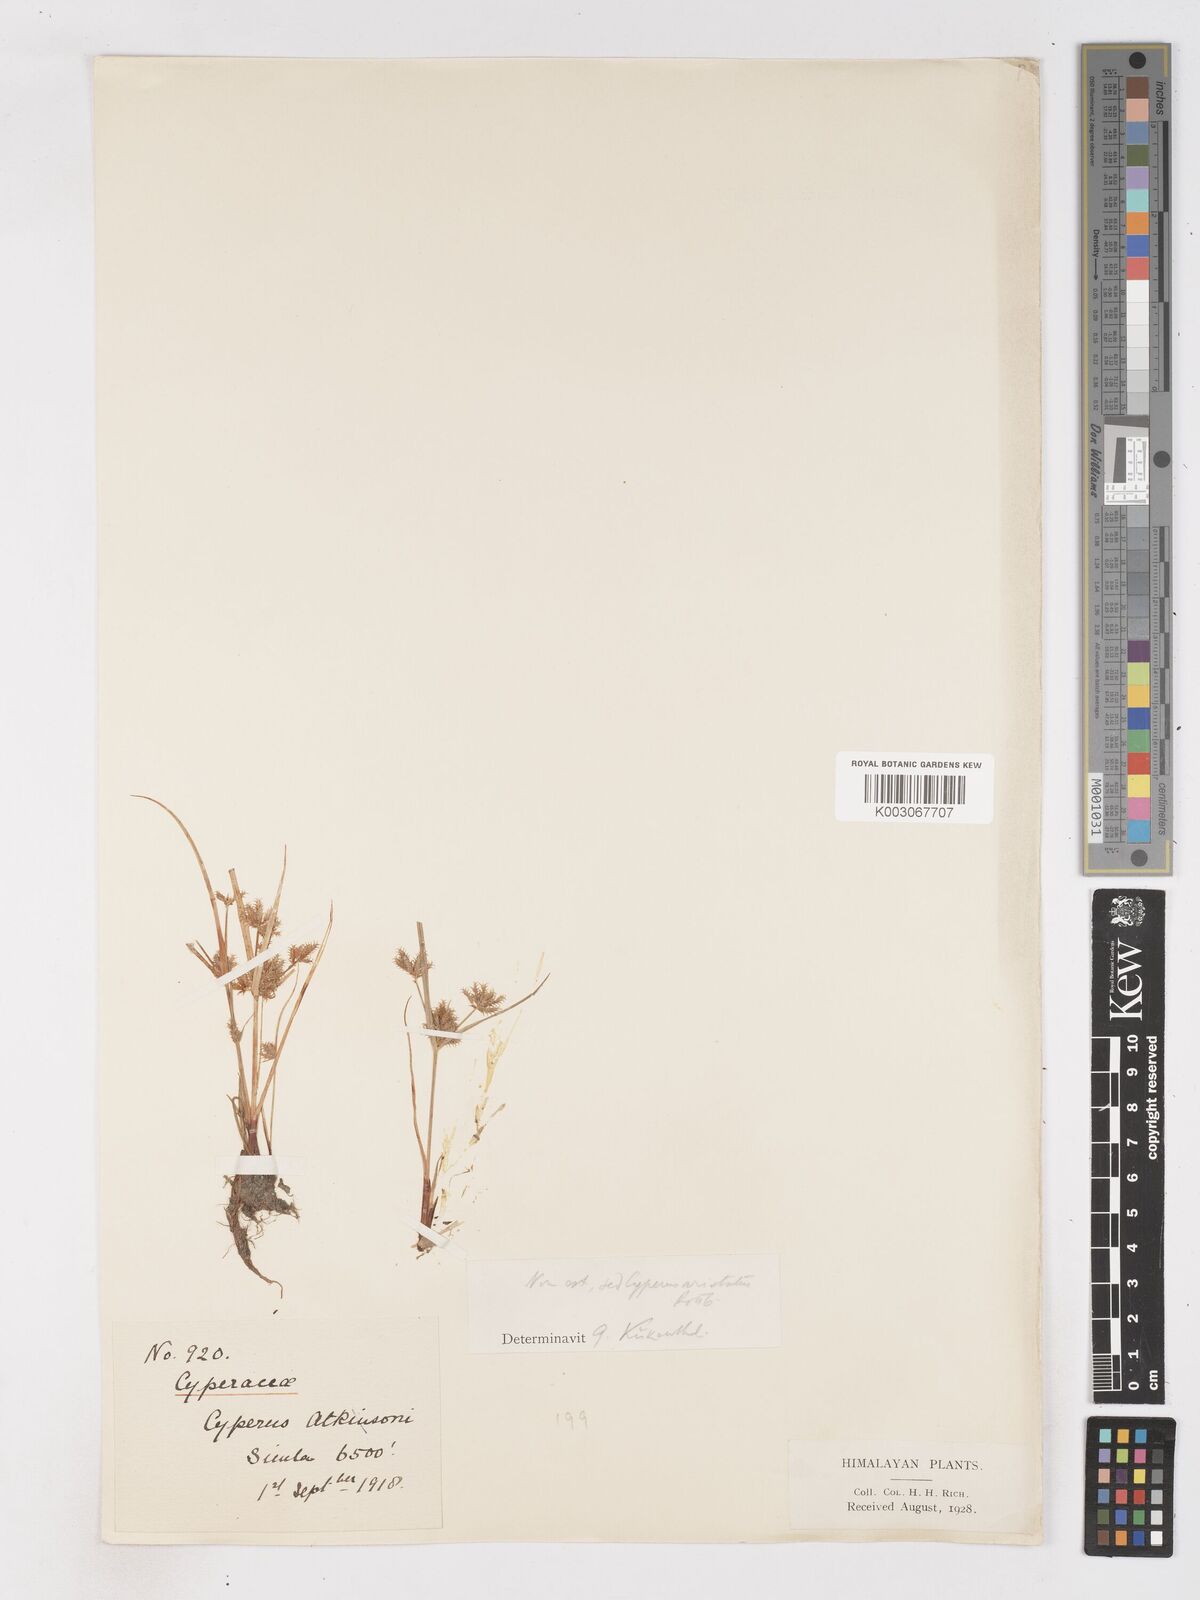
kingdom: Plantae
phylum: Tracheophyta
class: Liliopsida
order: Poales
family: Cyperaceae
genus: Cyperus
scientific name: Cyperus squarrosus
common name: Awned cyperus
